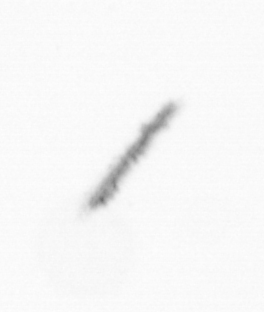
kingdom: Chromista
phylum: Ochrophyta
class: Bacillariophyceae
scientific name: Bacillariophyceae
